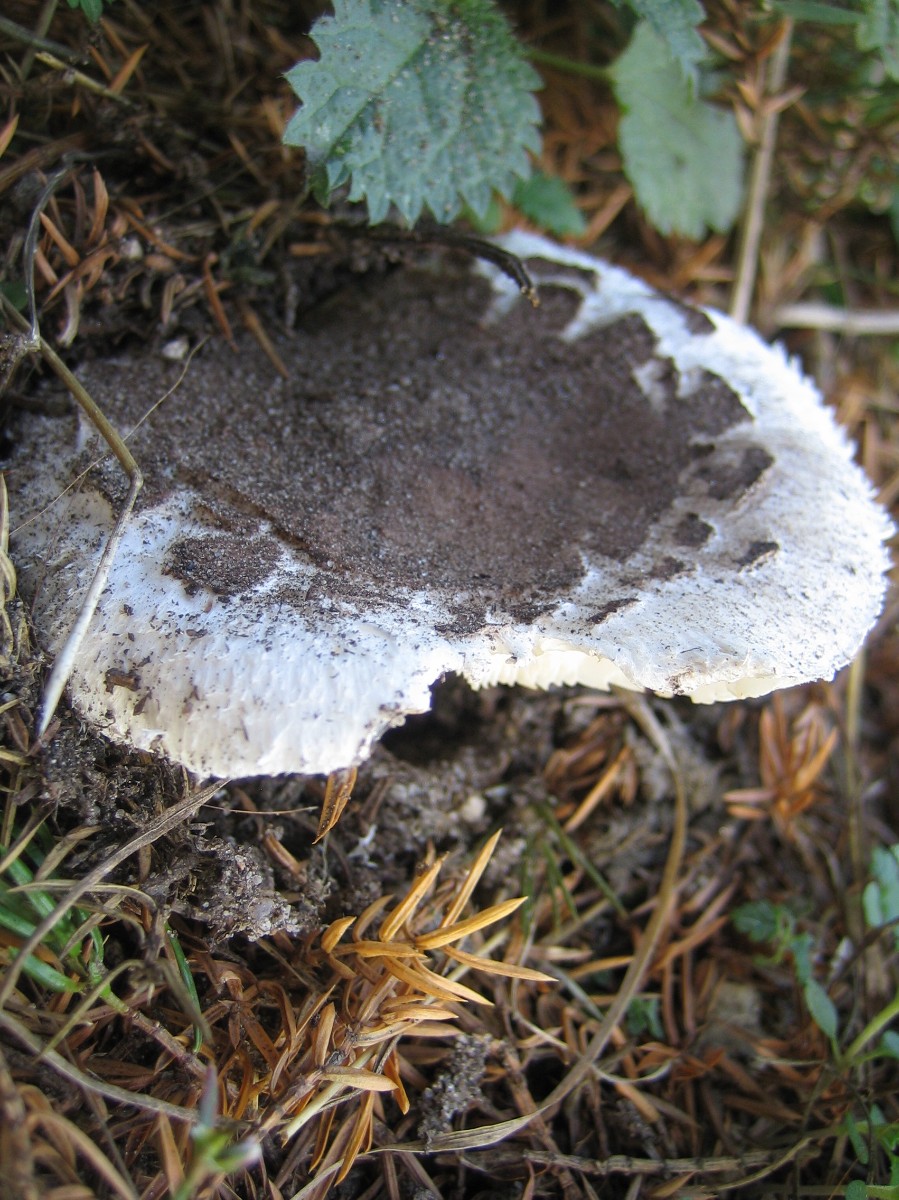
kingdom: Fungi
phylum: Basidiomycota
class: Agaricomycetes
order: Agaricales
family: Agaricaceae
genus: Chlorophyllum
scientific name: Chlorophyllum brunneum
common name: giftig rabarberhat
